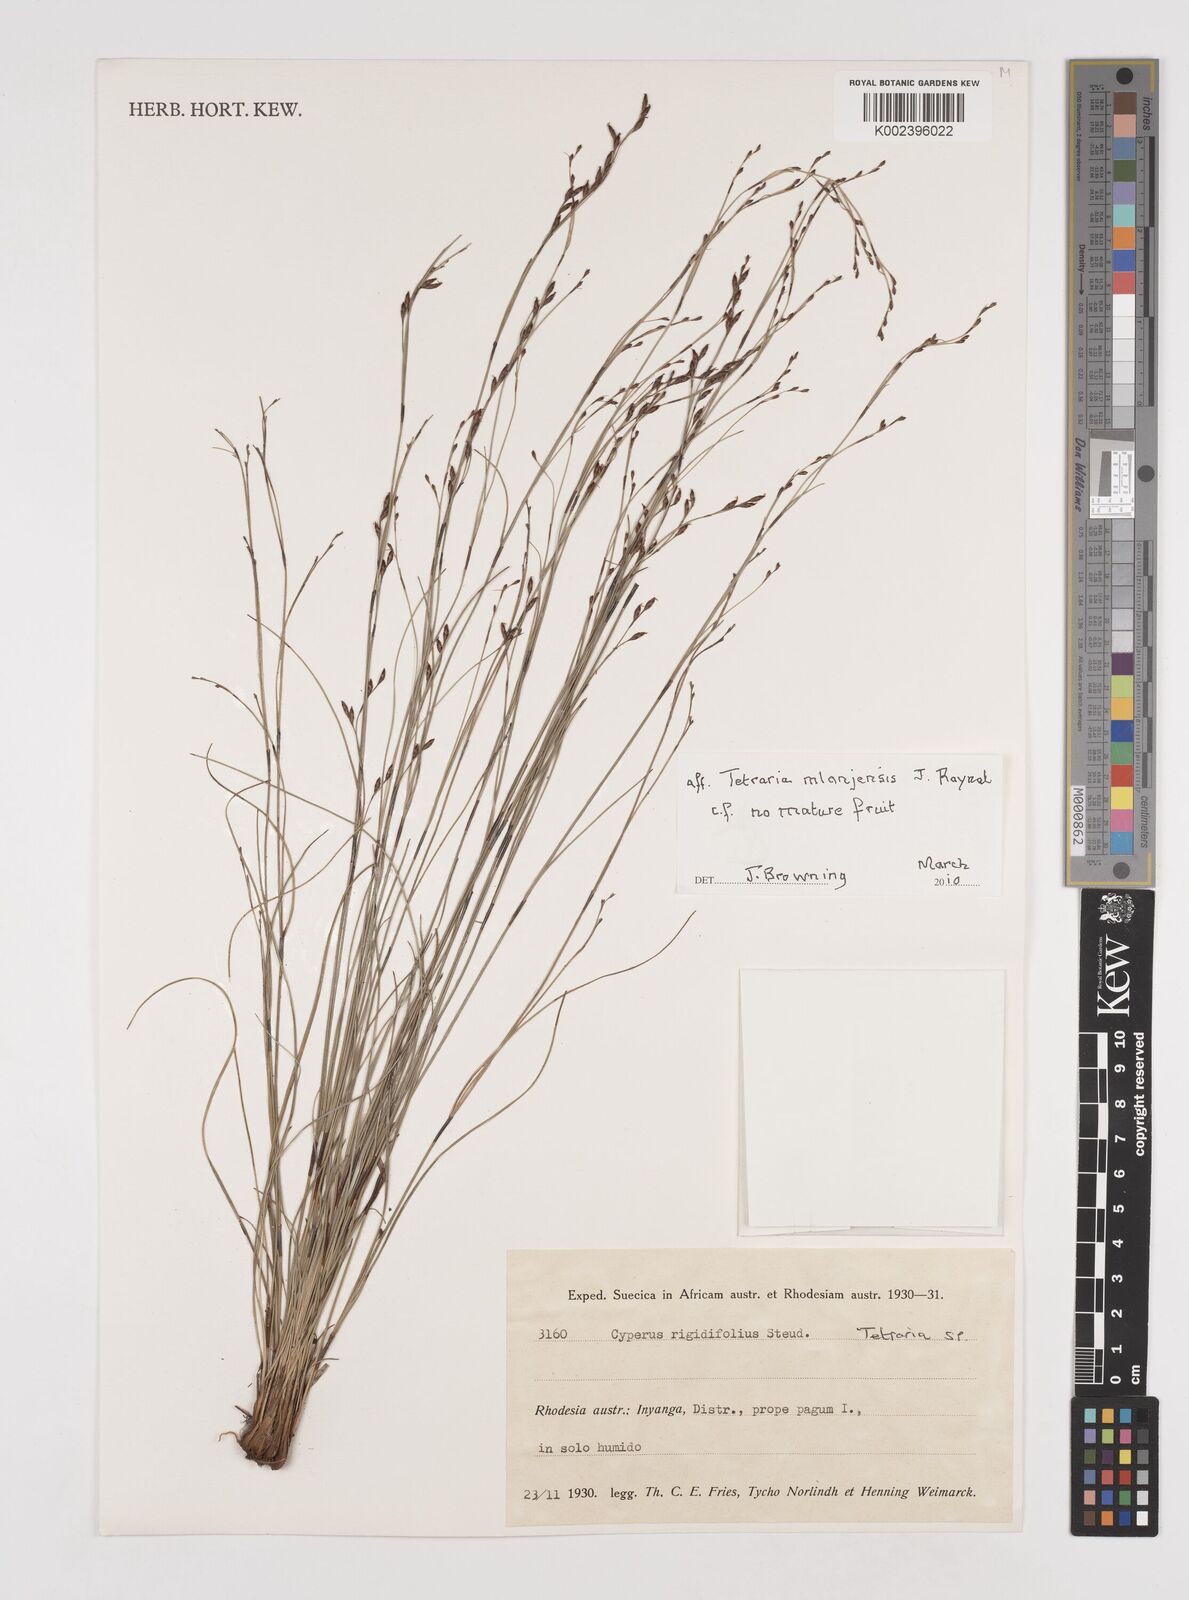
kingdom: Plantae
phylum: Tracheophyta
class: Liliopsida
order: Poales
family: Cyperaceae
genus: Tetraria
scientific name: Tetraria mlanjensis
